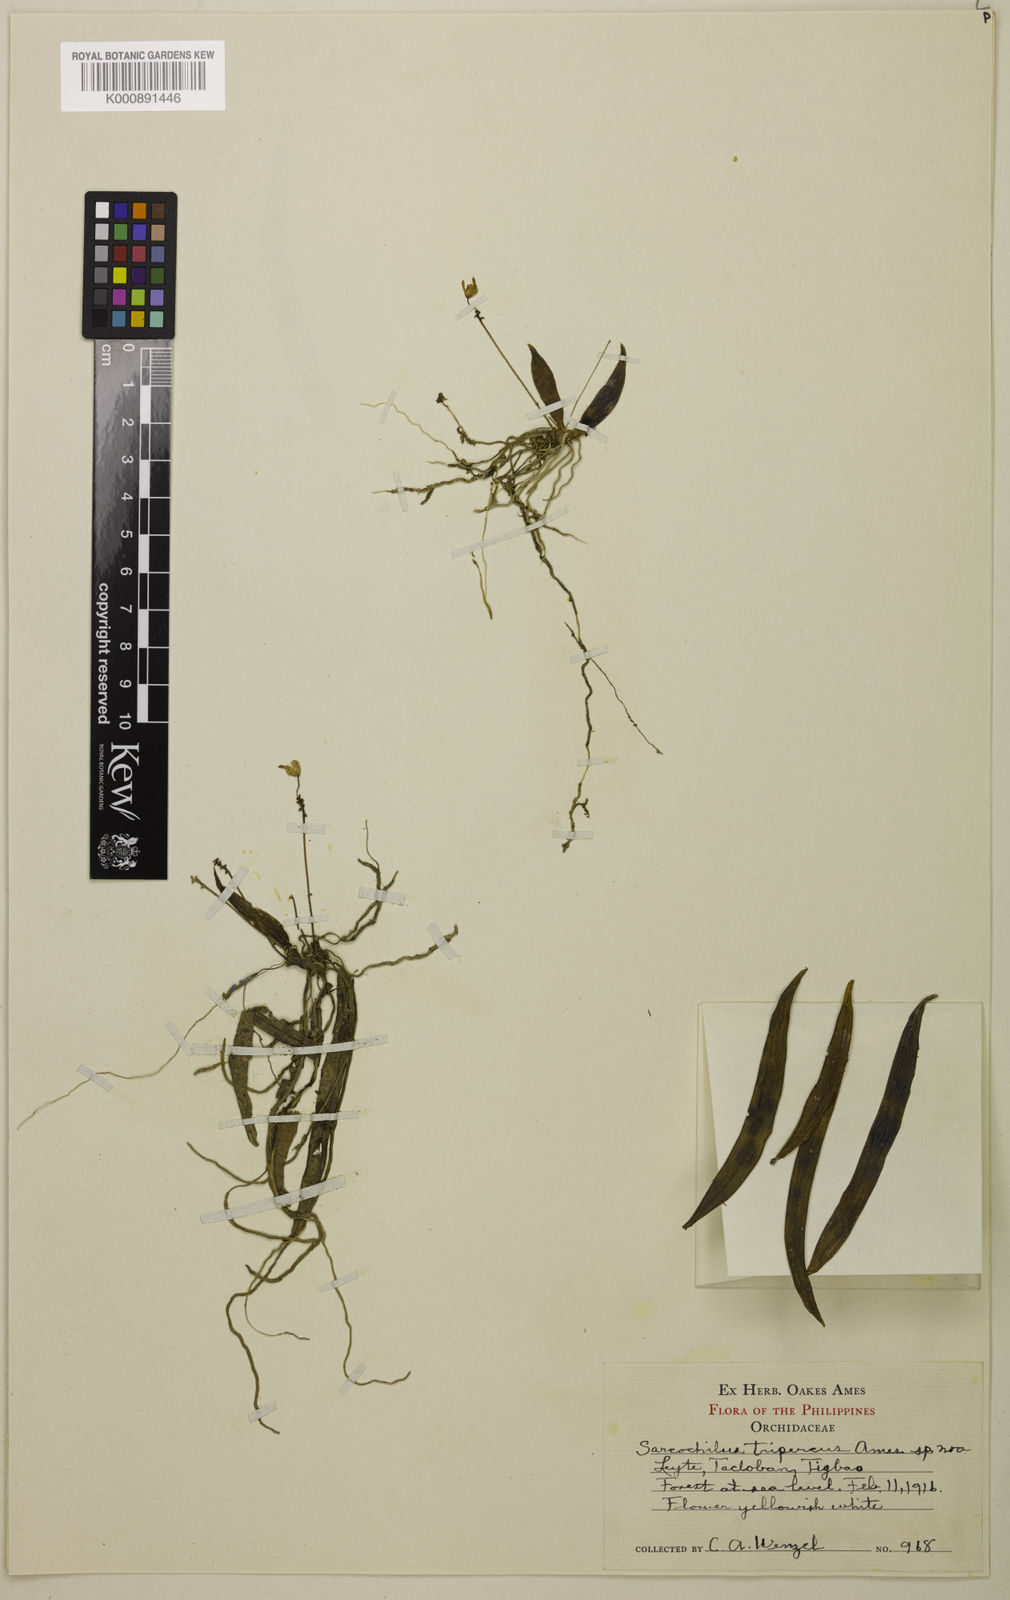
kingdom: Plantae
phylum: Tracheophyta
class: Liliopsida
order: Asparagales
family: Orchidaceae
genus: Grosourdya
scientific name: Grosourdya tripercus
